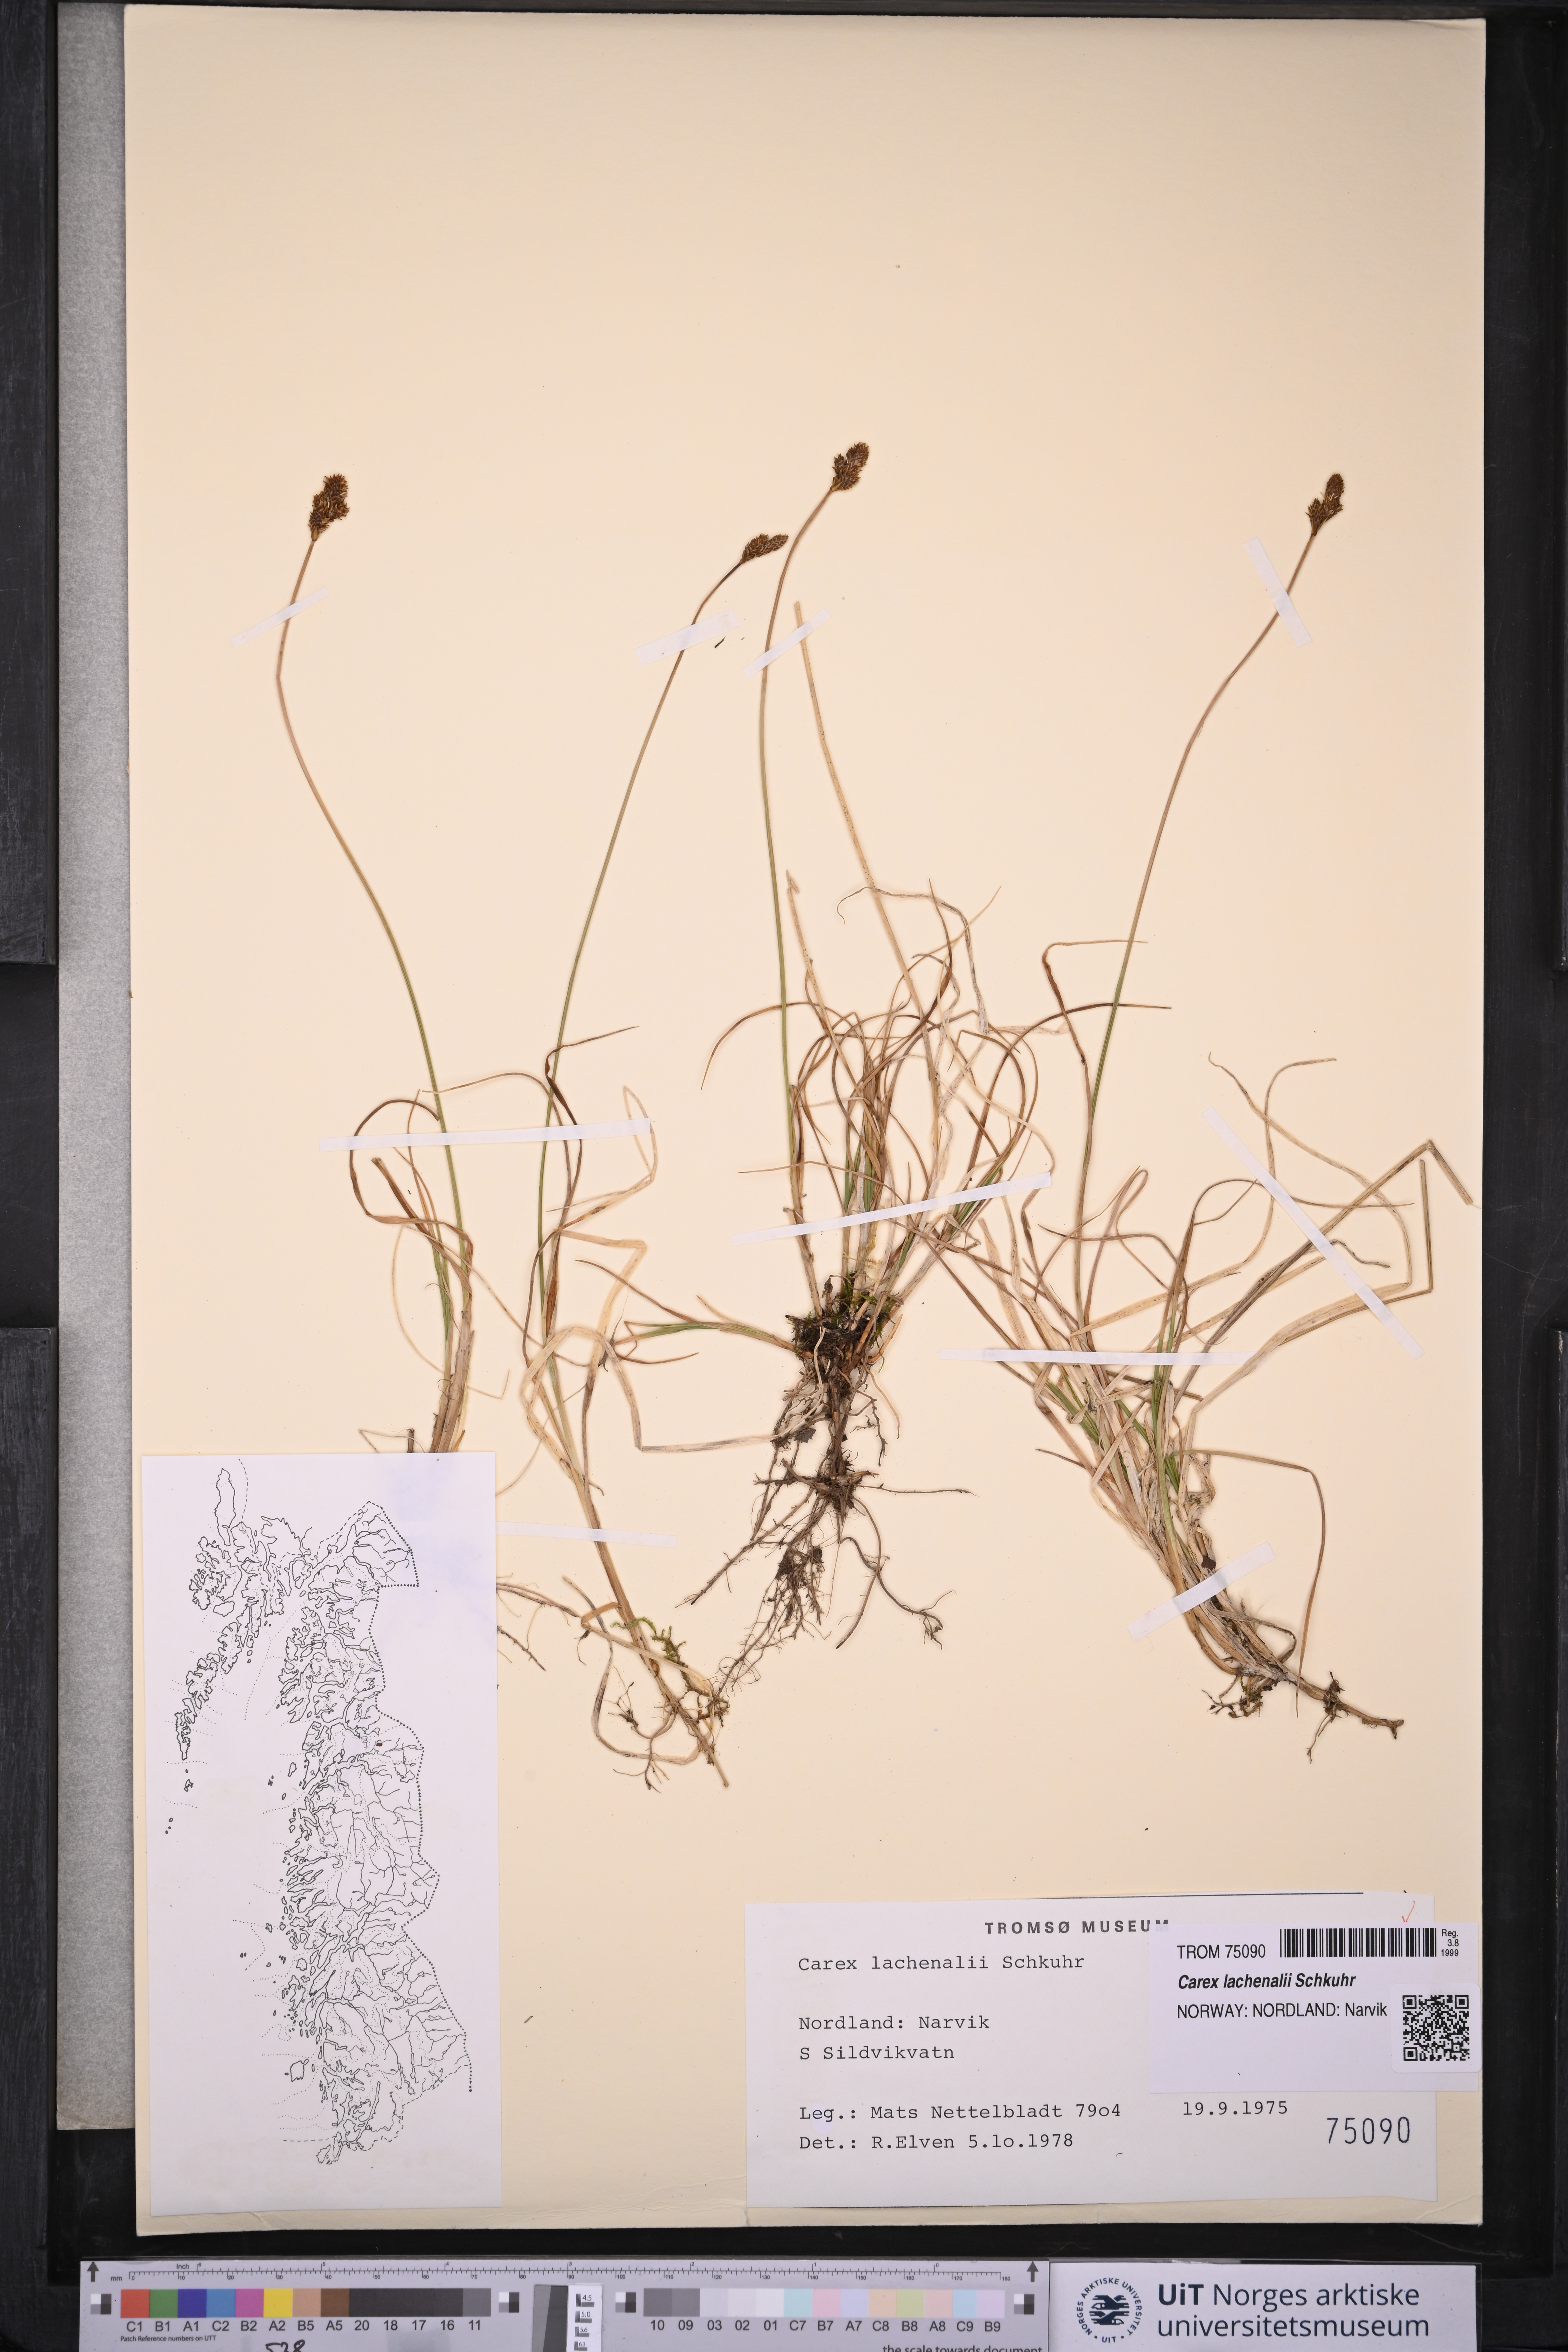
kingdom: Plantae
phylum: Tracheophyta
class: Liliopsida
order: Poales
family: Cyperaceae
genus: Carex
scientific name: Carex lachenalii
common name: Hare's-foot sedge
